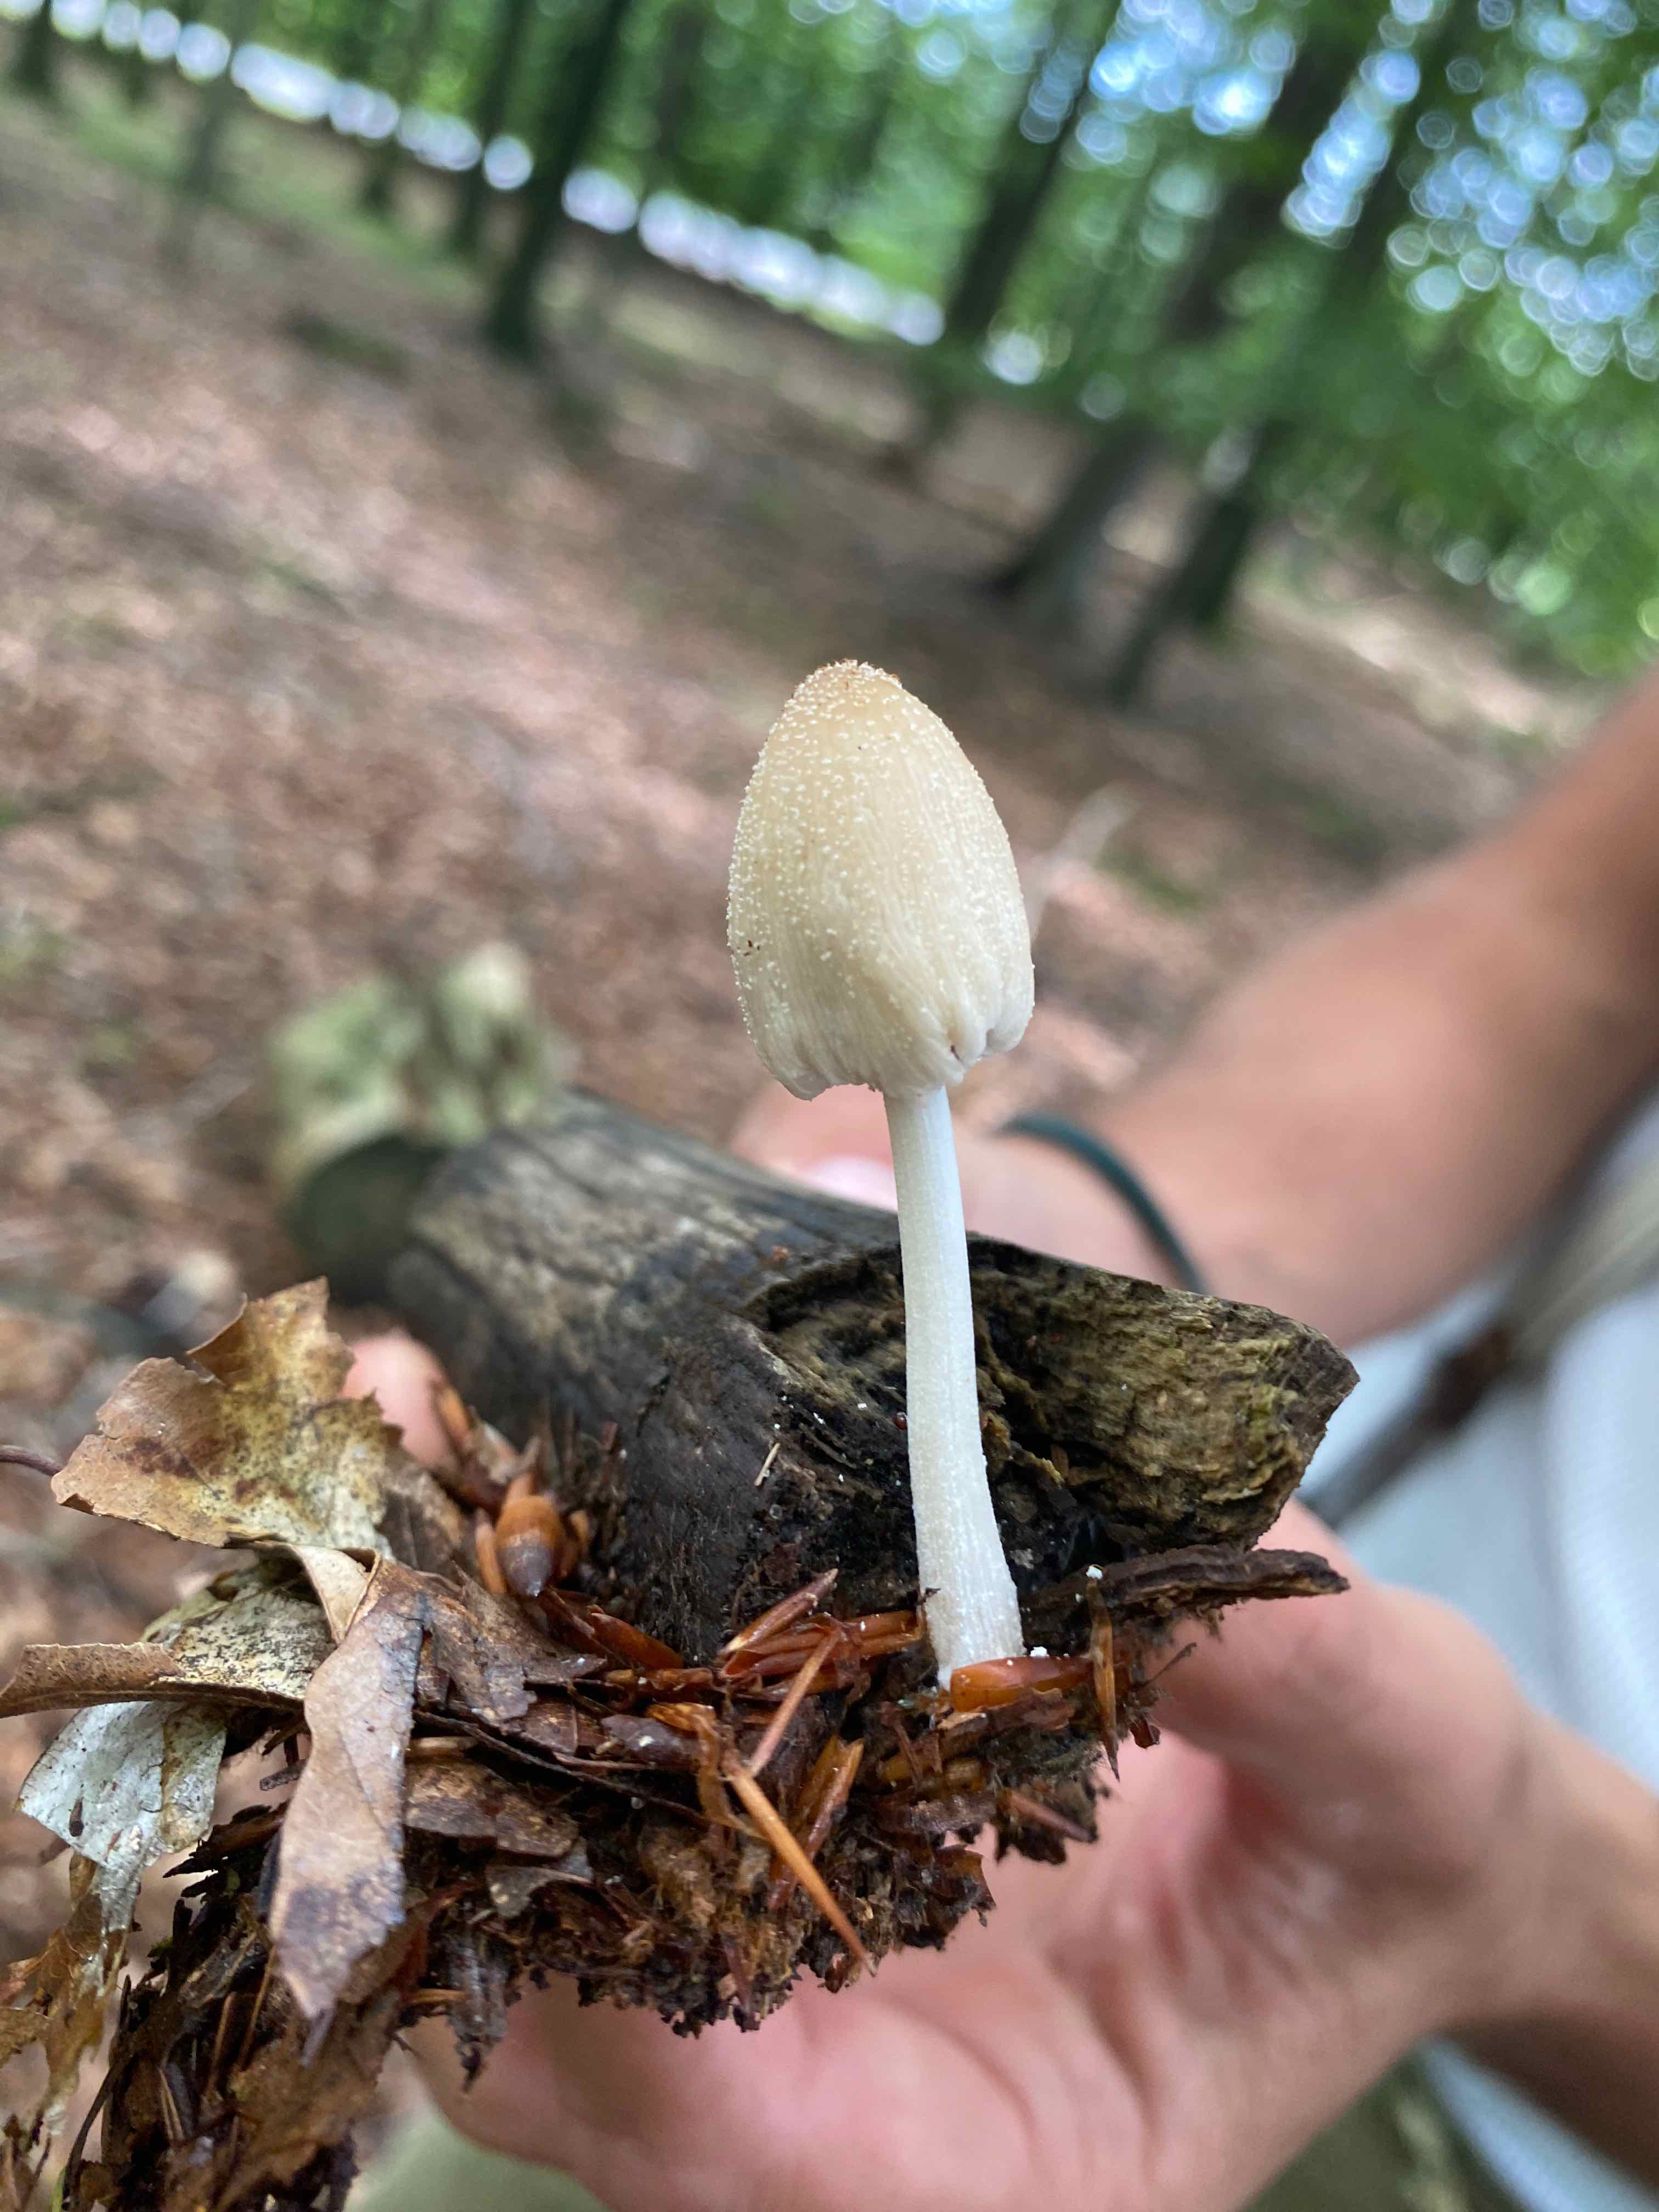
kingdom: Fungi
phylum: Basidiomycota
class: Agaricomycetes
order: Agaricales
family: Psathyrellaceae
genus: Coprinellus
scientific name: Coprinellus
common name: blækhat
